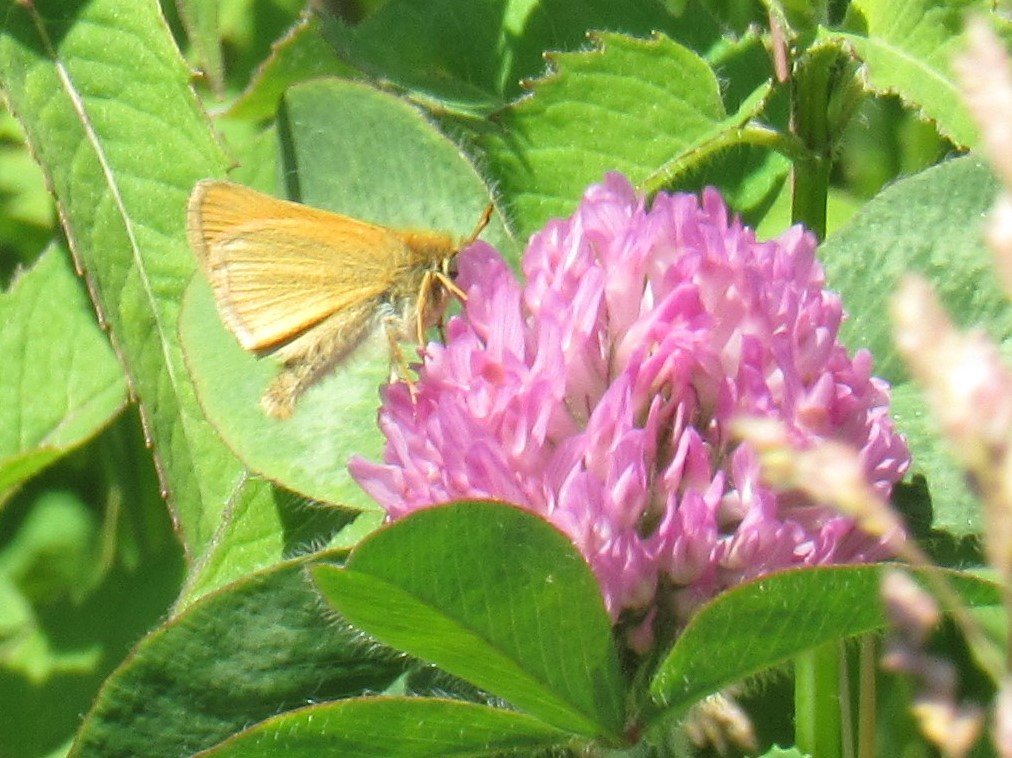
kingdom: Animalia
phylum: Arthropoda
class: Insecta
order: Lepidoptera
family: Hesperiidae
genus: Thymelicus
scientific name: Thymelicus lineola
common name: European Skipper
